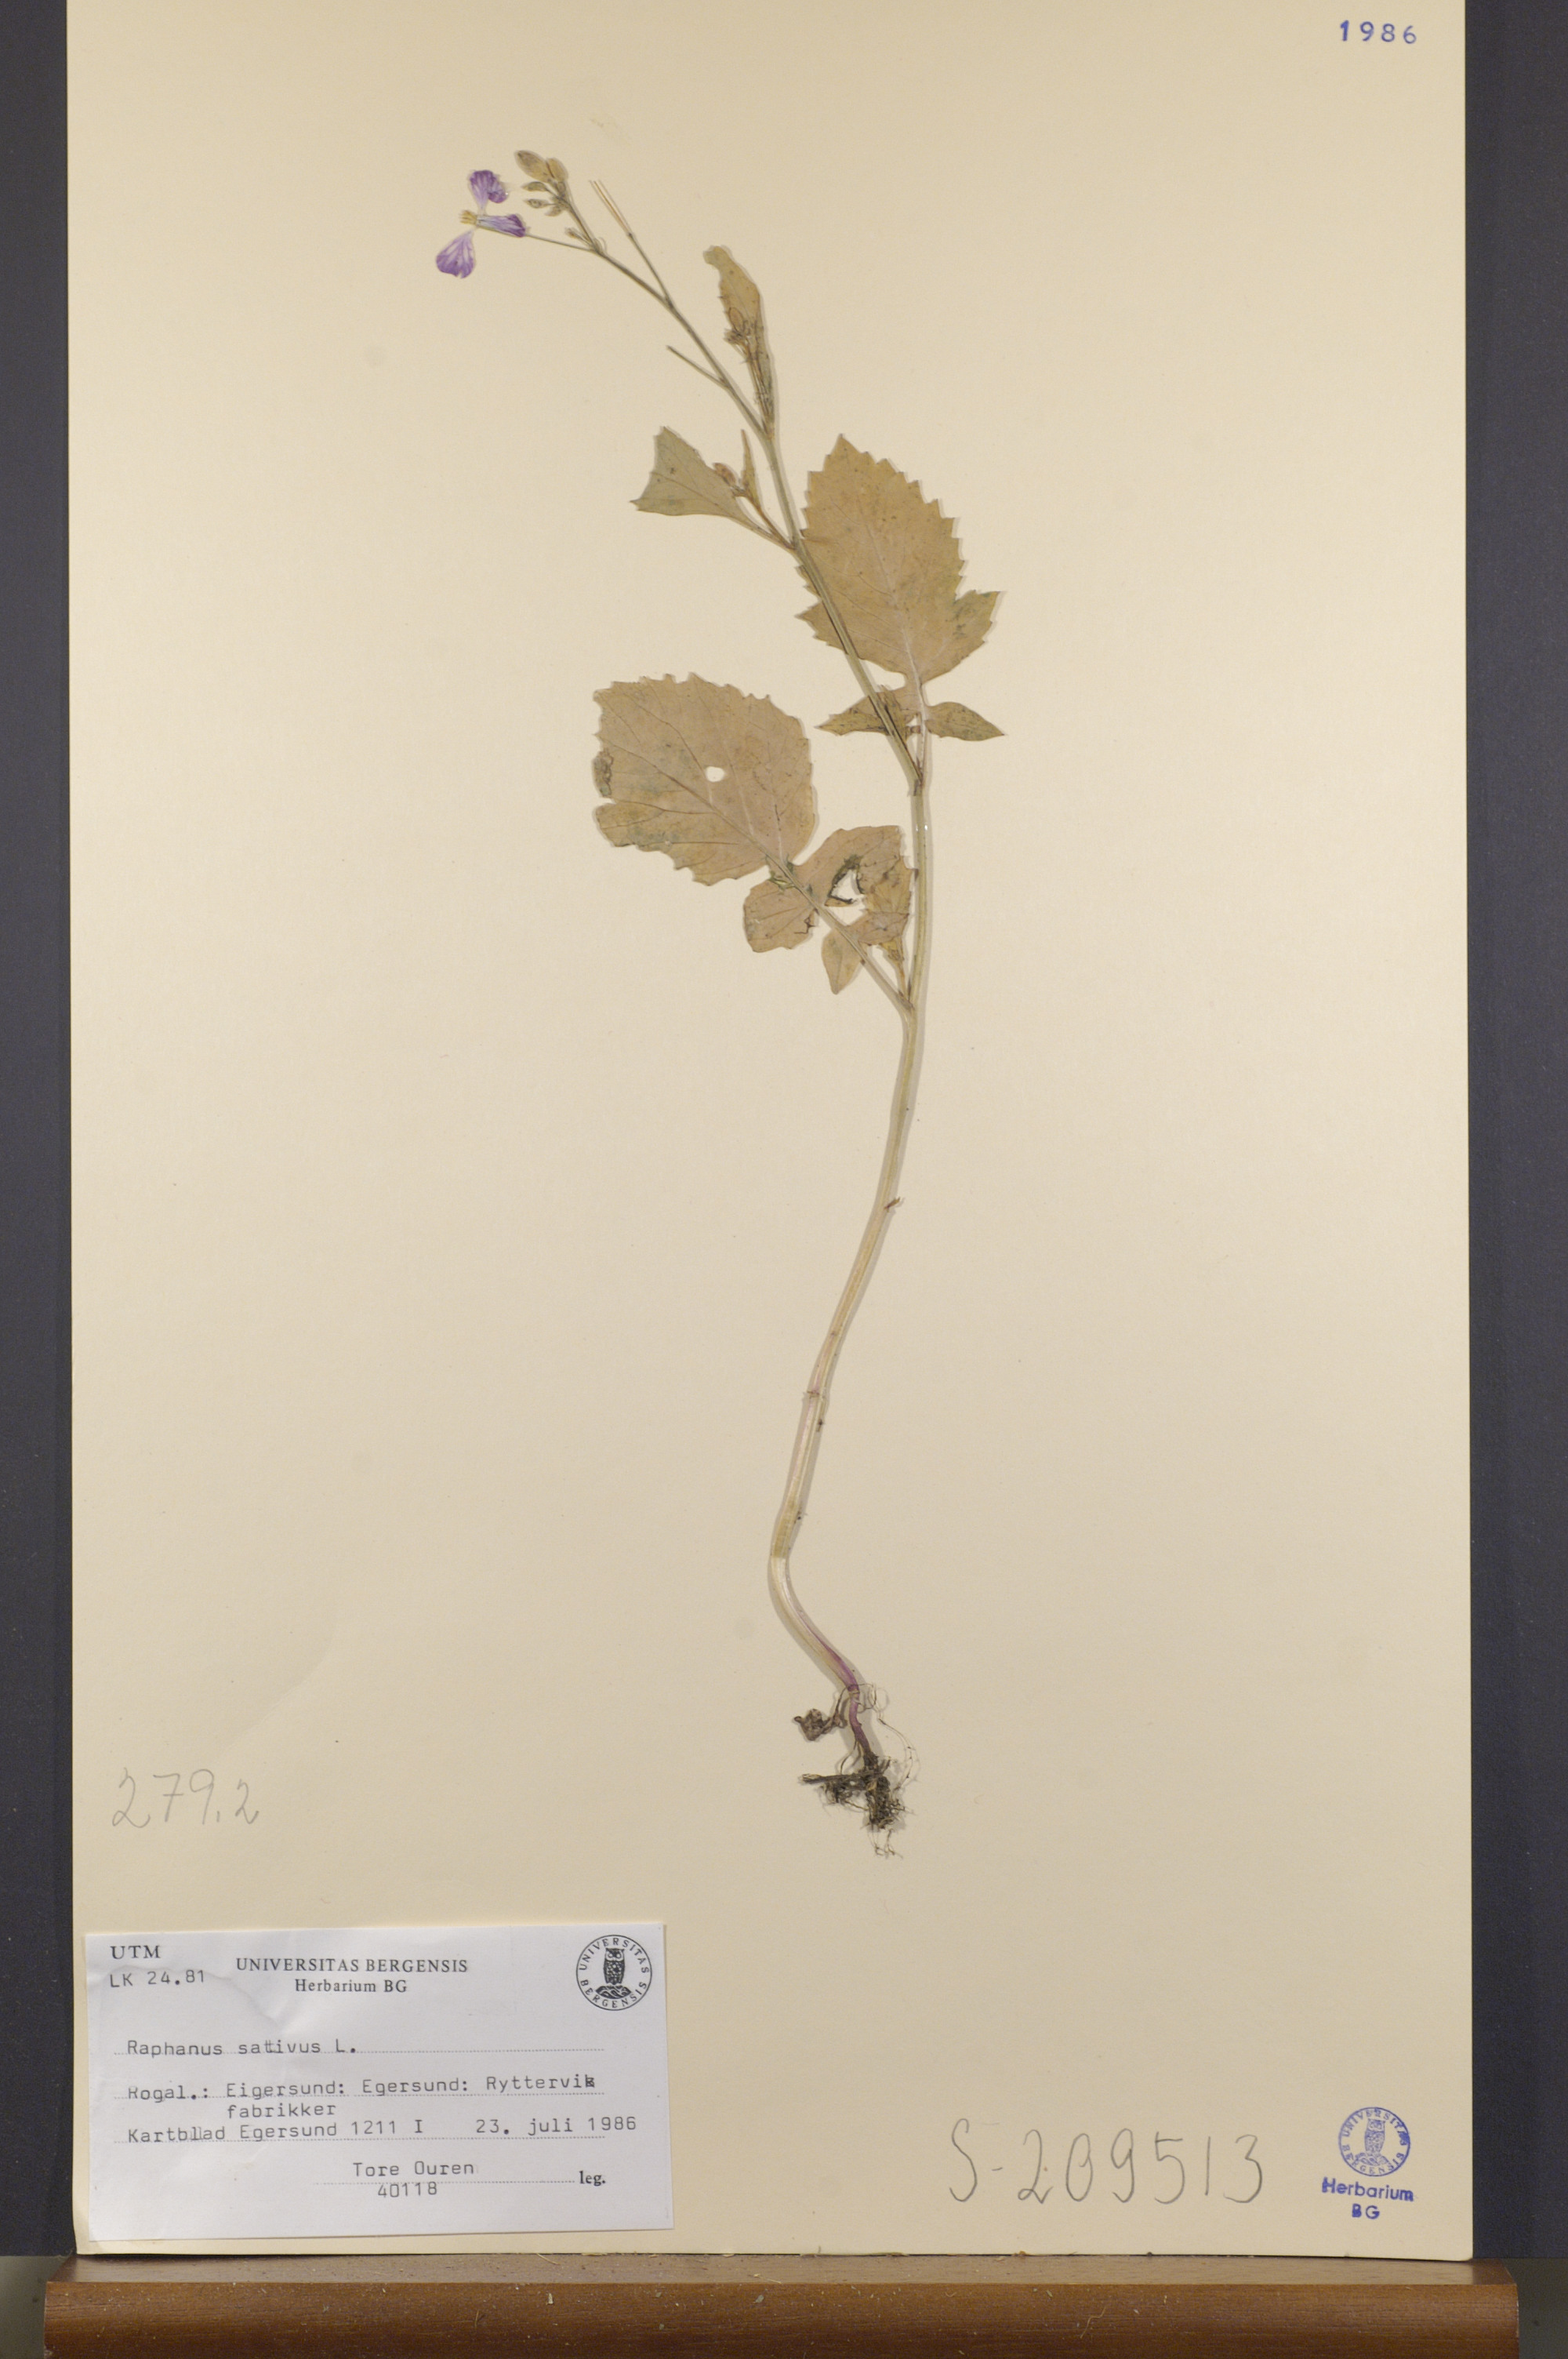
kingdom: Plantae
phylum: Tracheophyta
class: Magnoliopsida
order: Brassicales
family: Brassicaceae
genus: Raphanus
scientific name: Raphanus raphanistrum
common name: Wild radish
